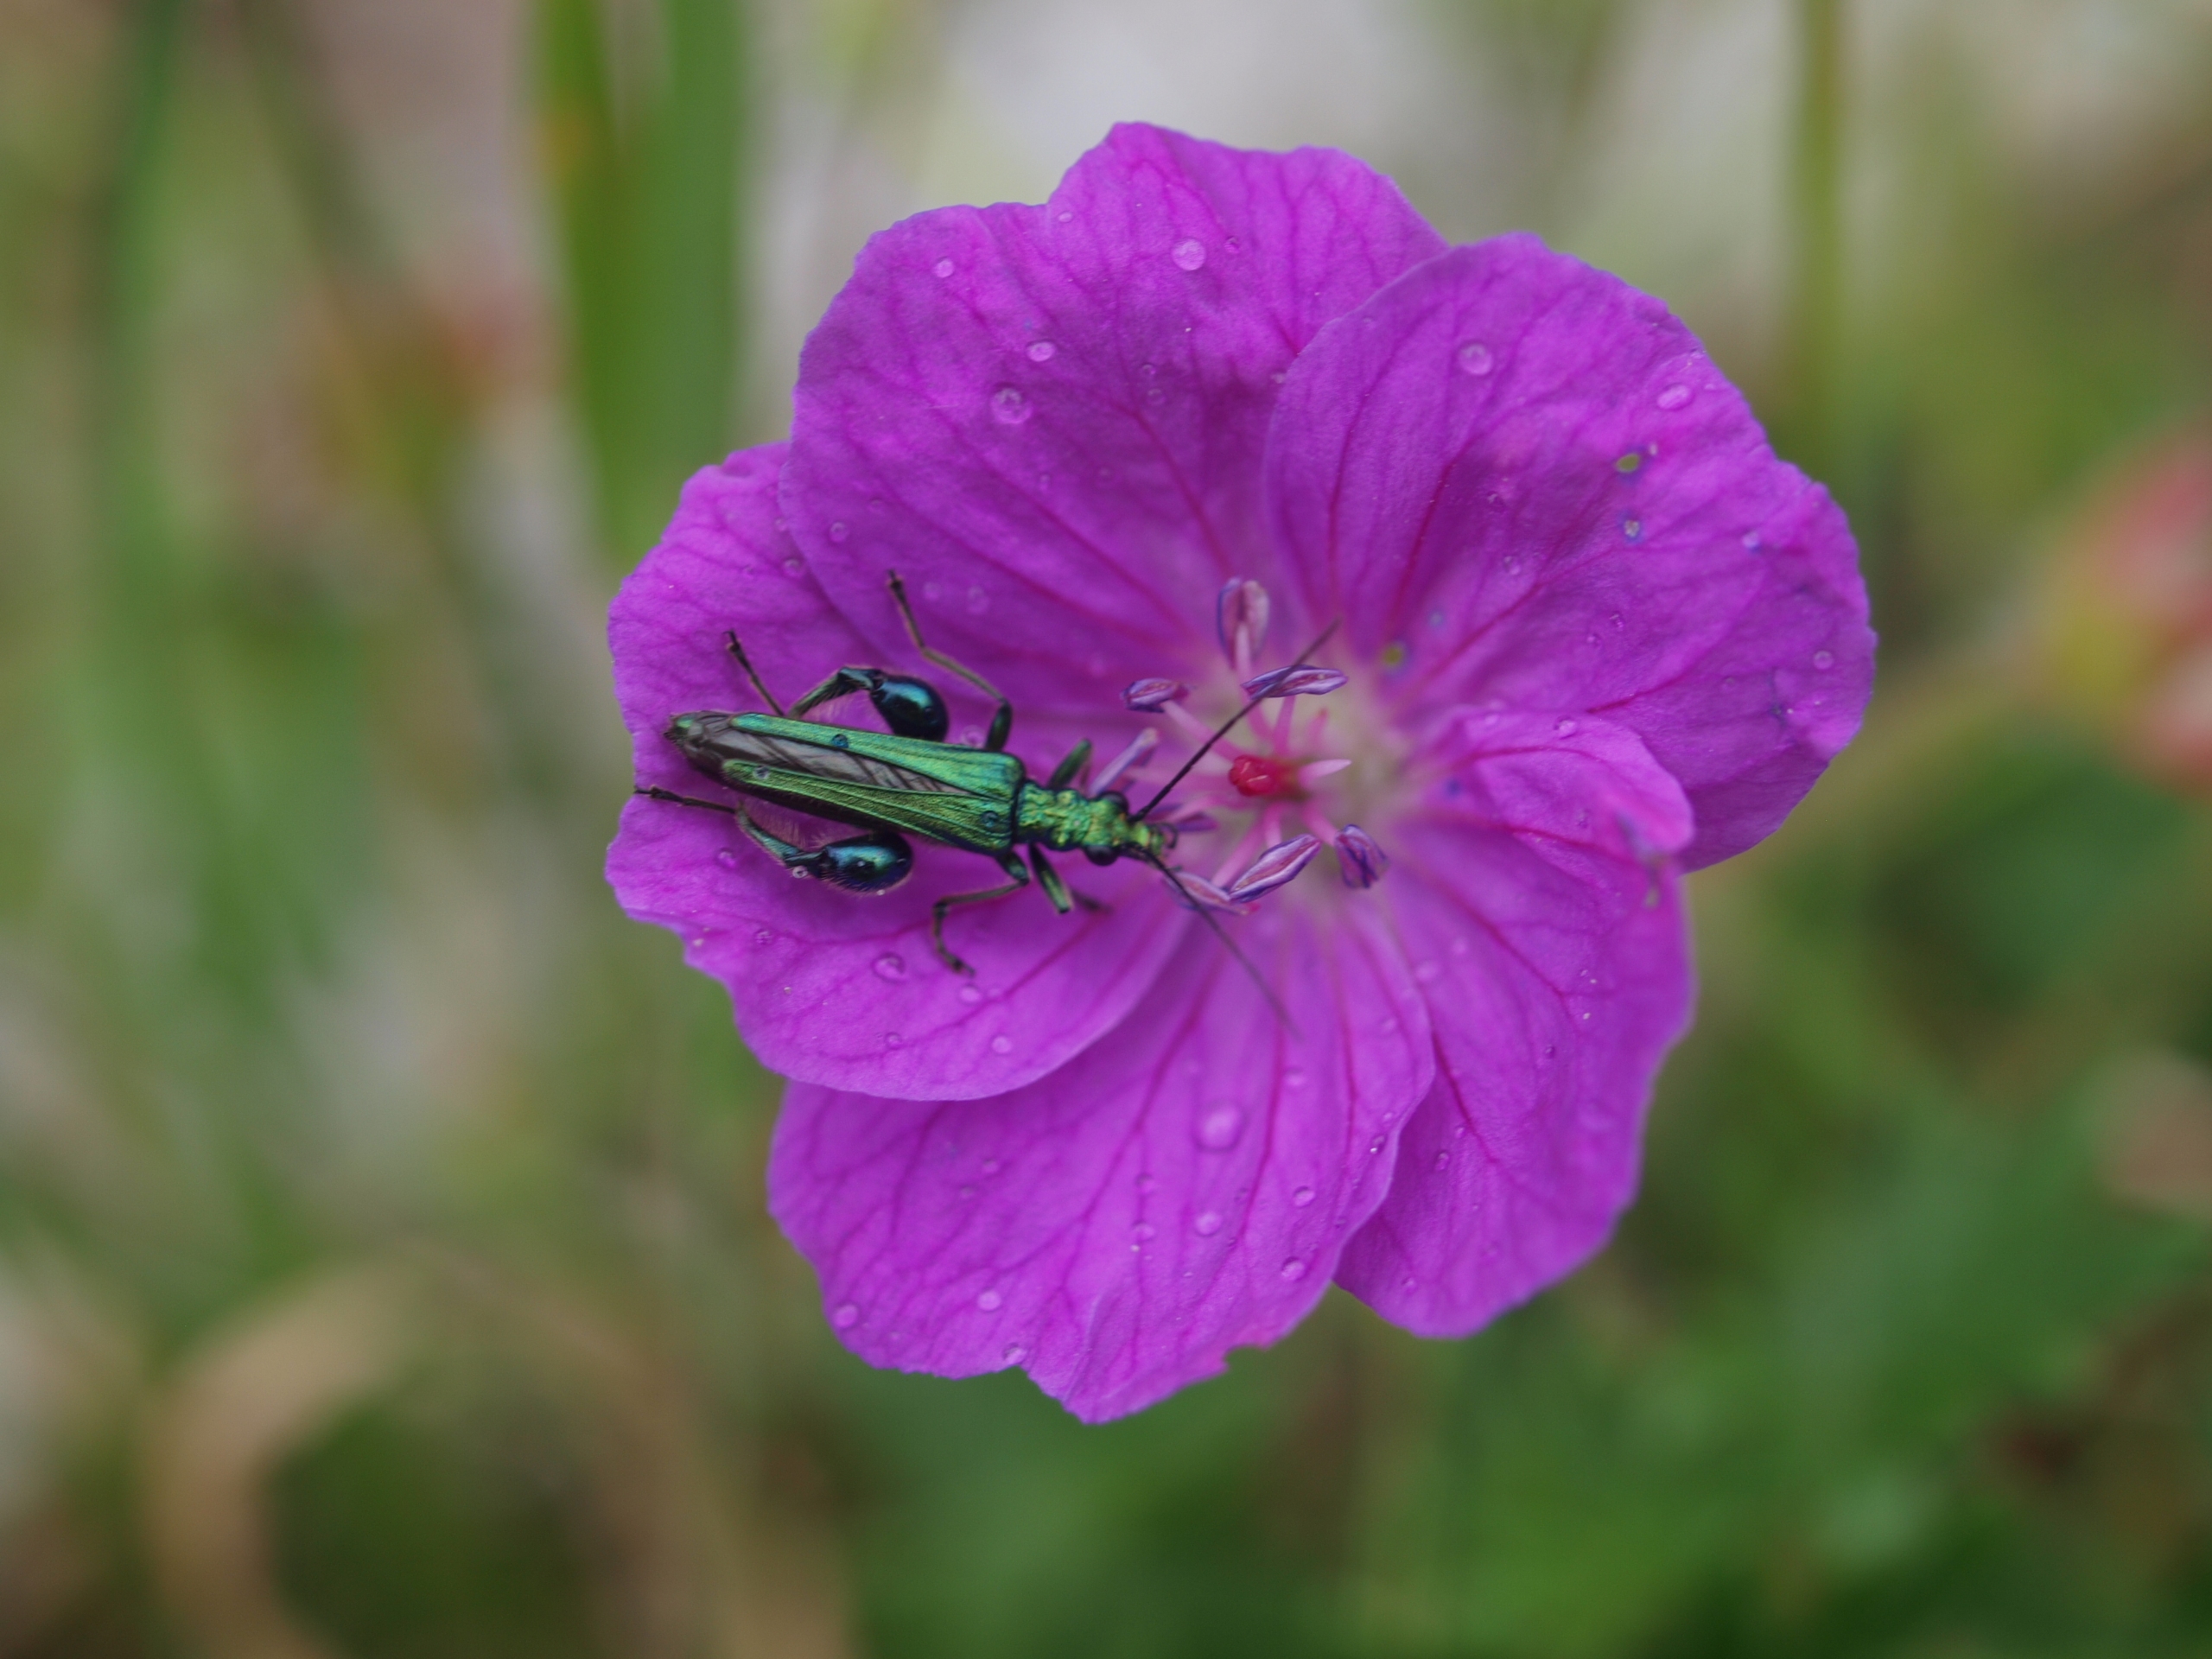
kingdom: Animalia
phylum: Arthropoda
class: Insecta
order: Coleoptera
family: Oedemeridae
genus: Oedemera
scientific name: Oedemera nobilis
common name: Tyklårssolbille
